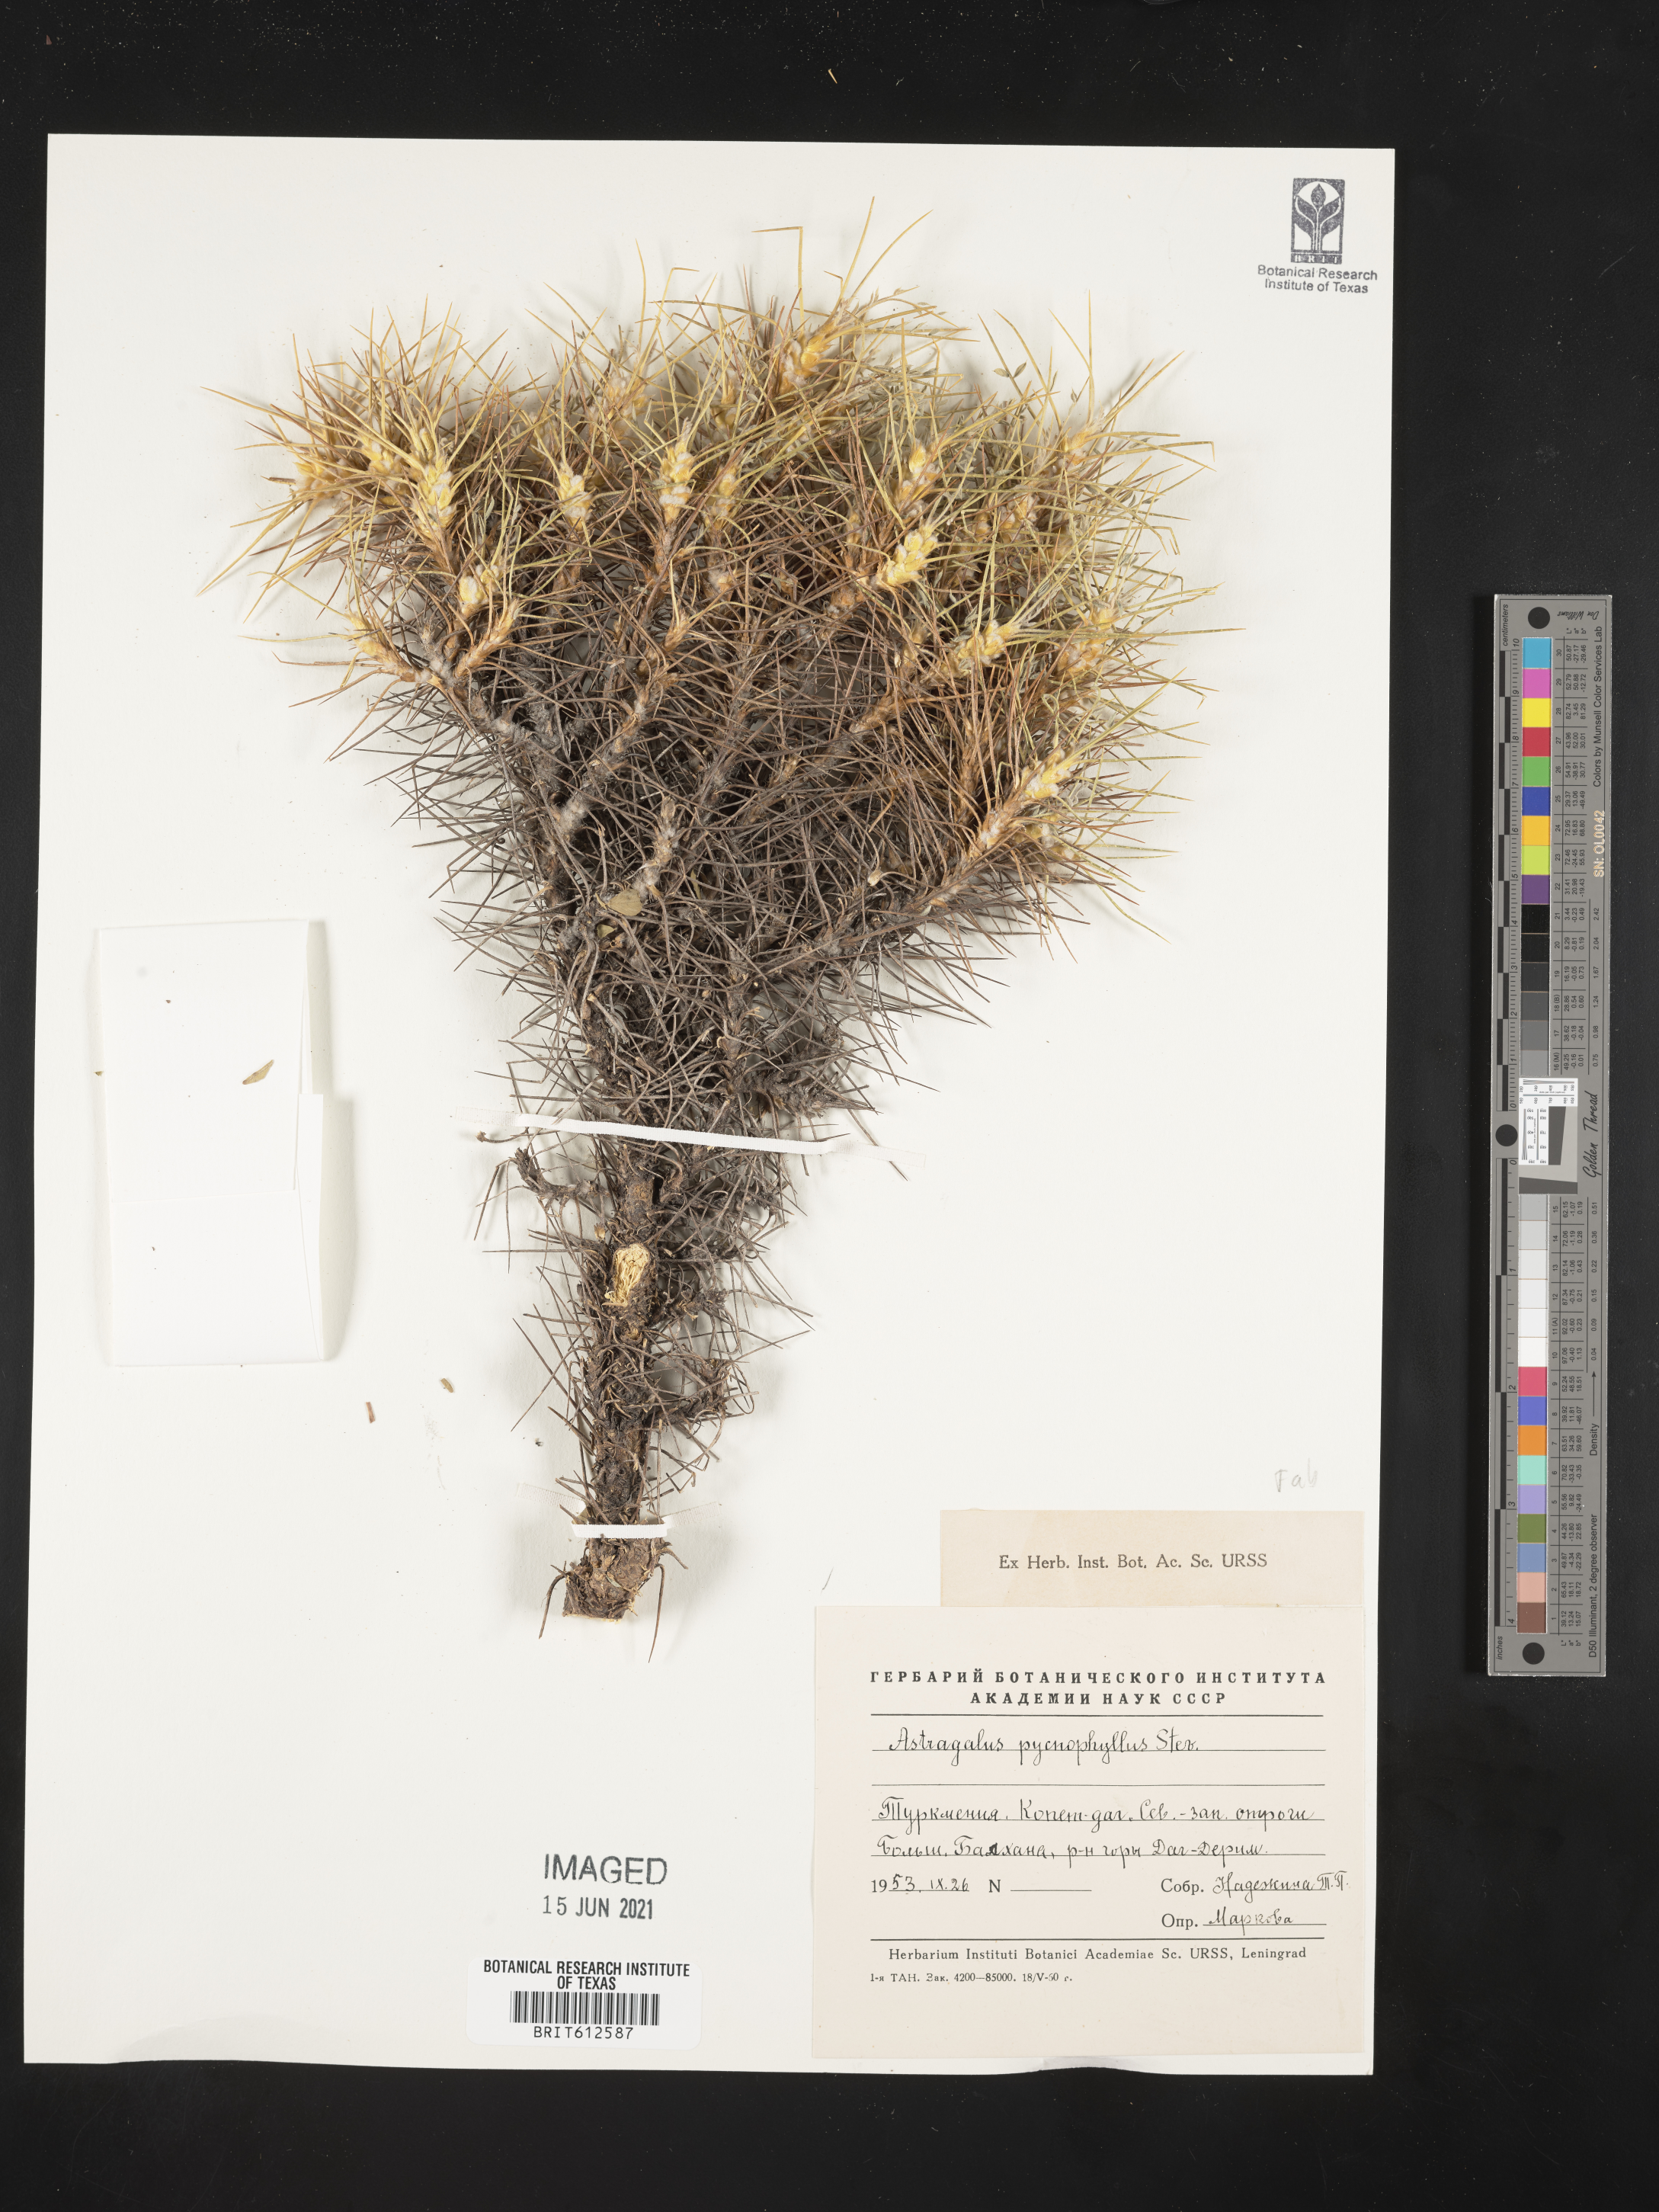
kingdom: Plantae
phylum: Tracheophyta
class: Magnoliopsida
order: Fabales
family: Fabaceae
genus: Astragalus
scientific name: Astragalus mesoleios
